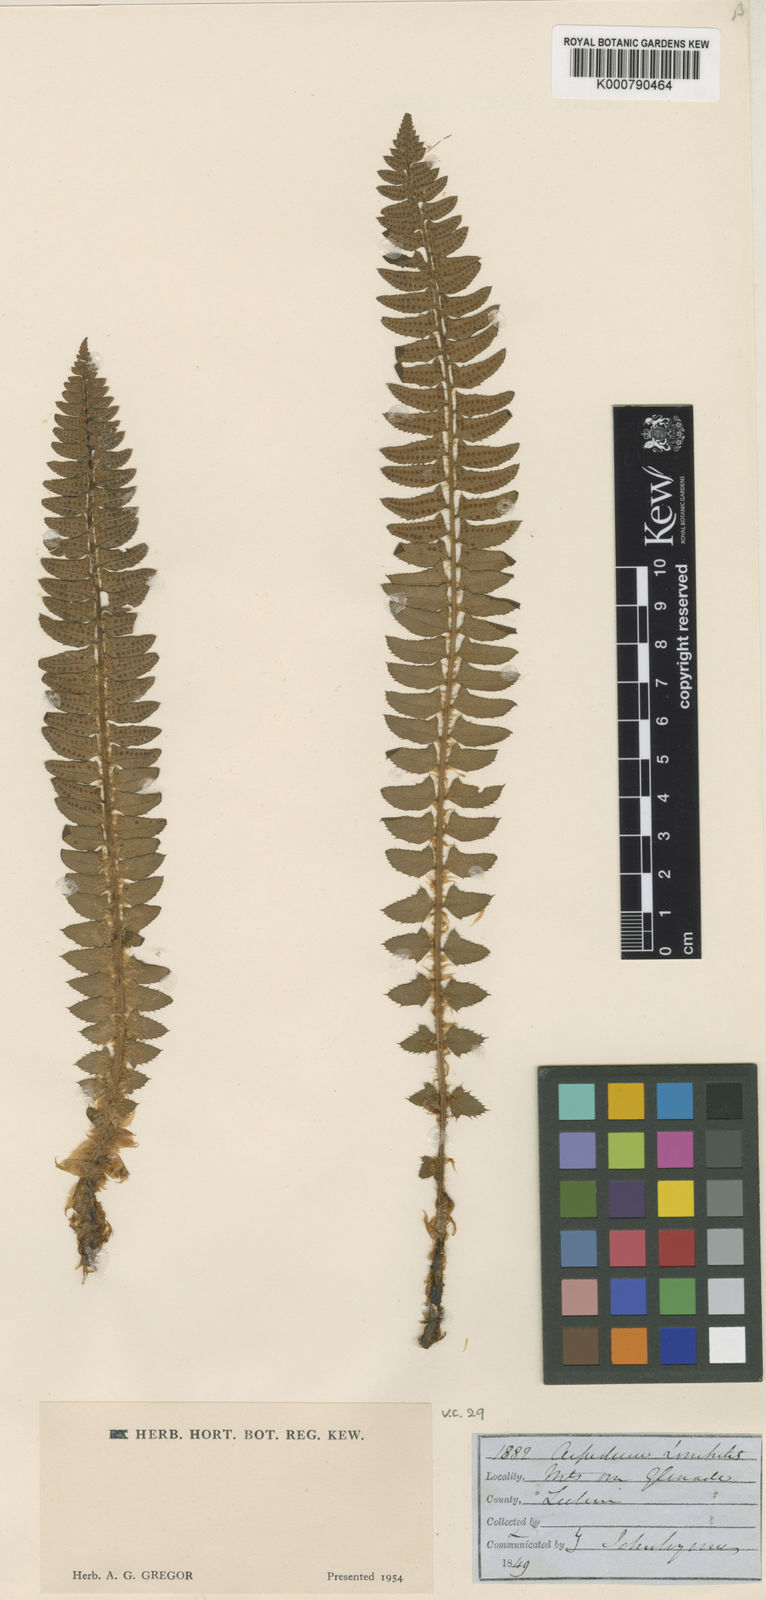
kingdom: Plantae
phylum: Tracheophyta
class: Polypodiopsida
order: Polypodiales
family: Dryopteridaceae
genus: Polystichum
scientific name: Polystichum
